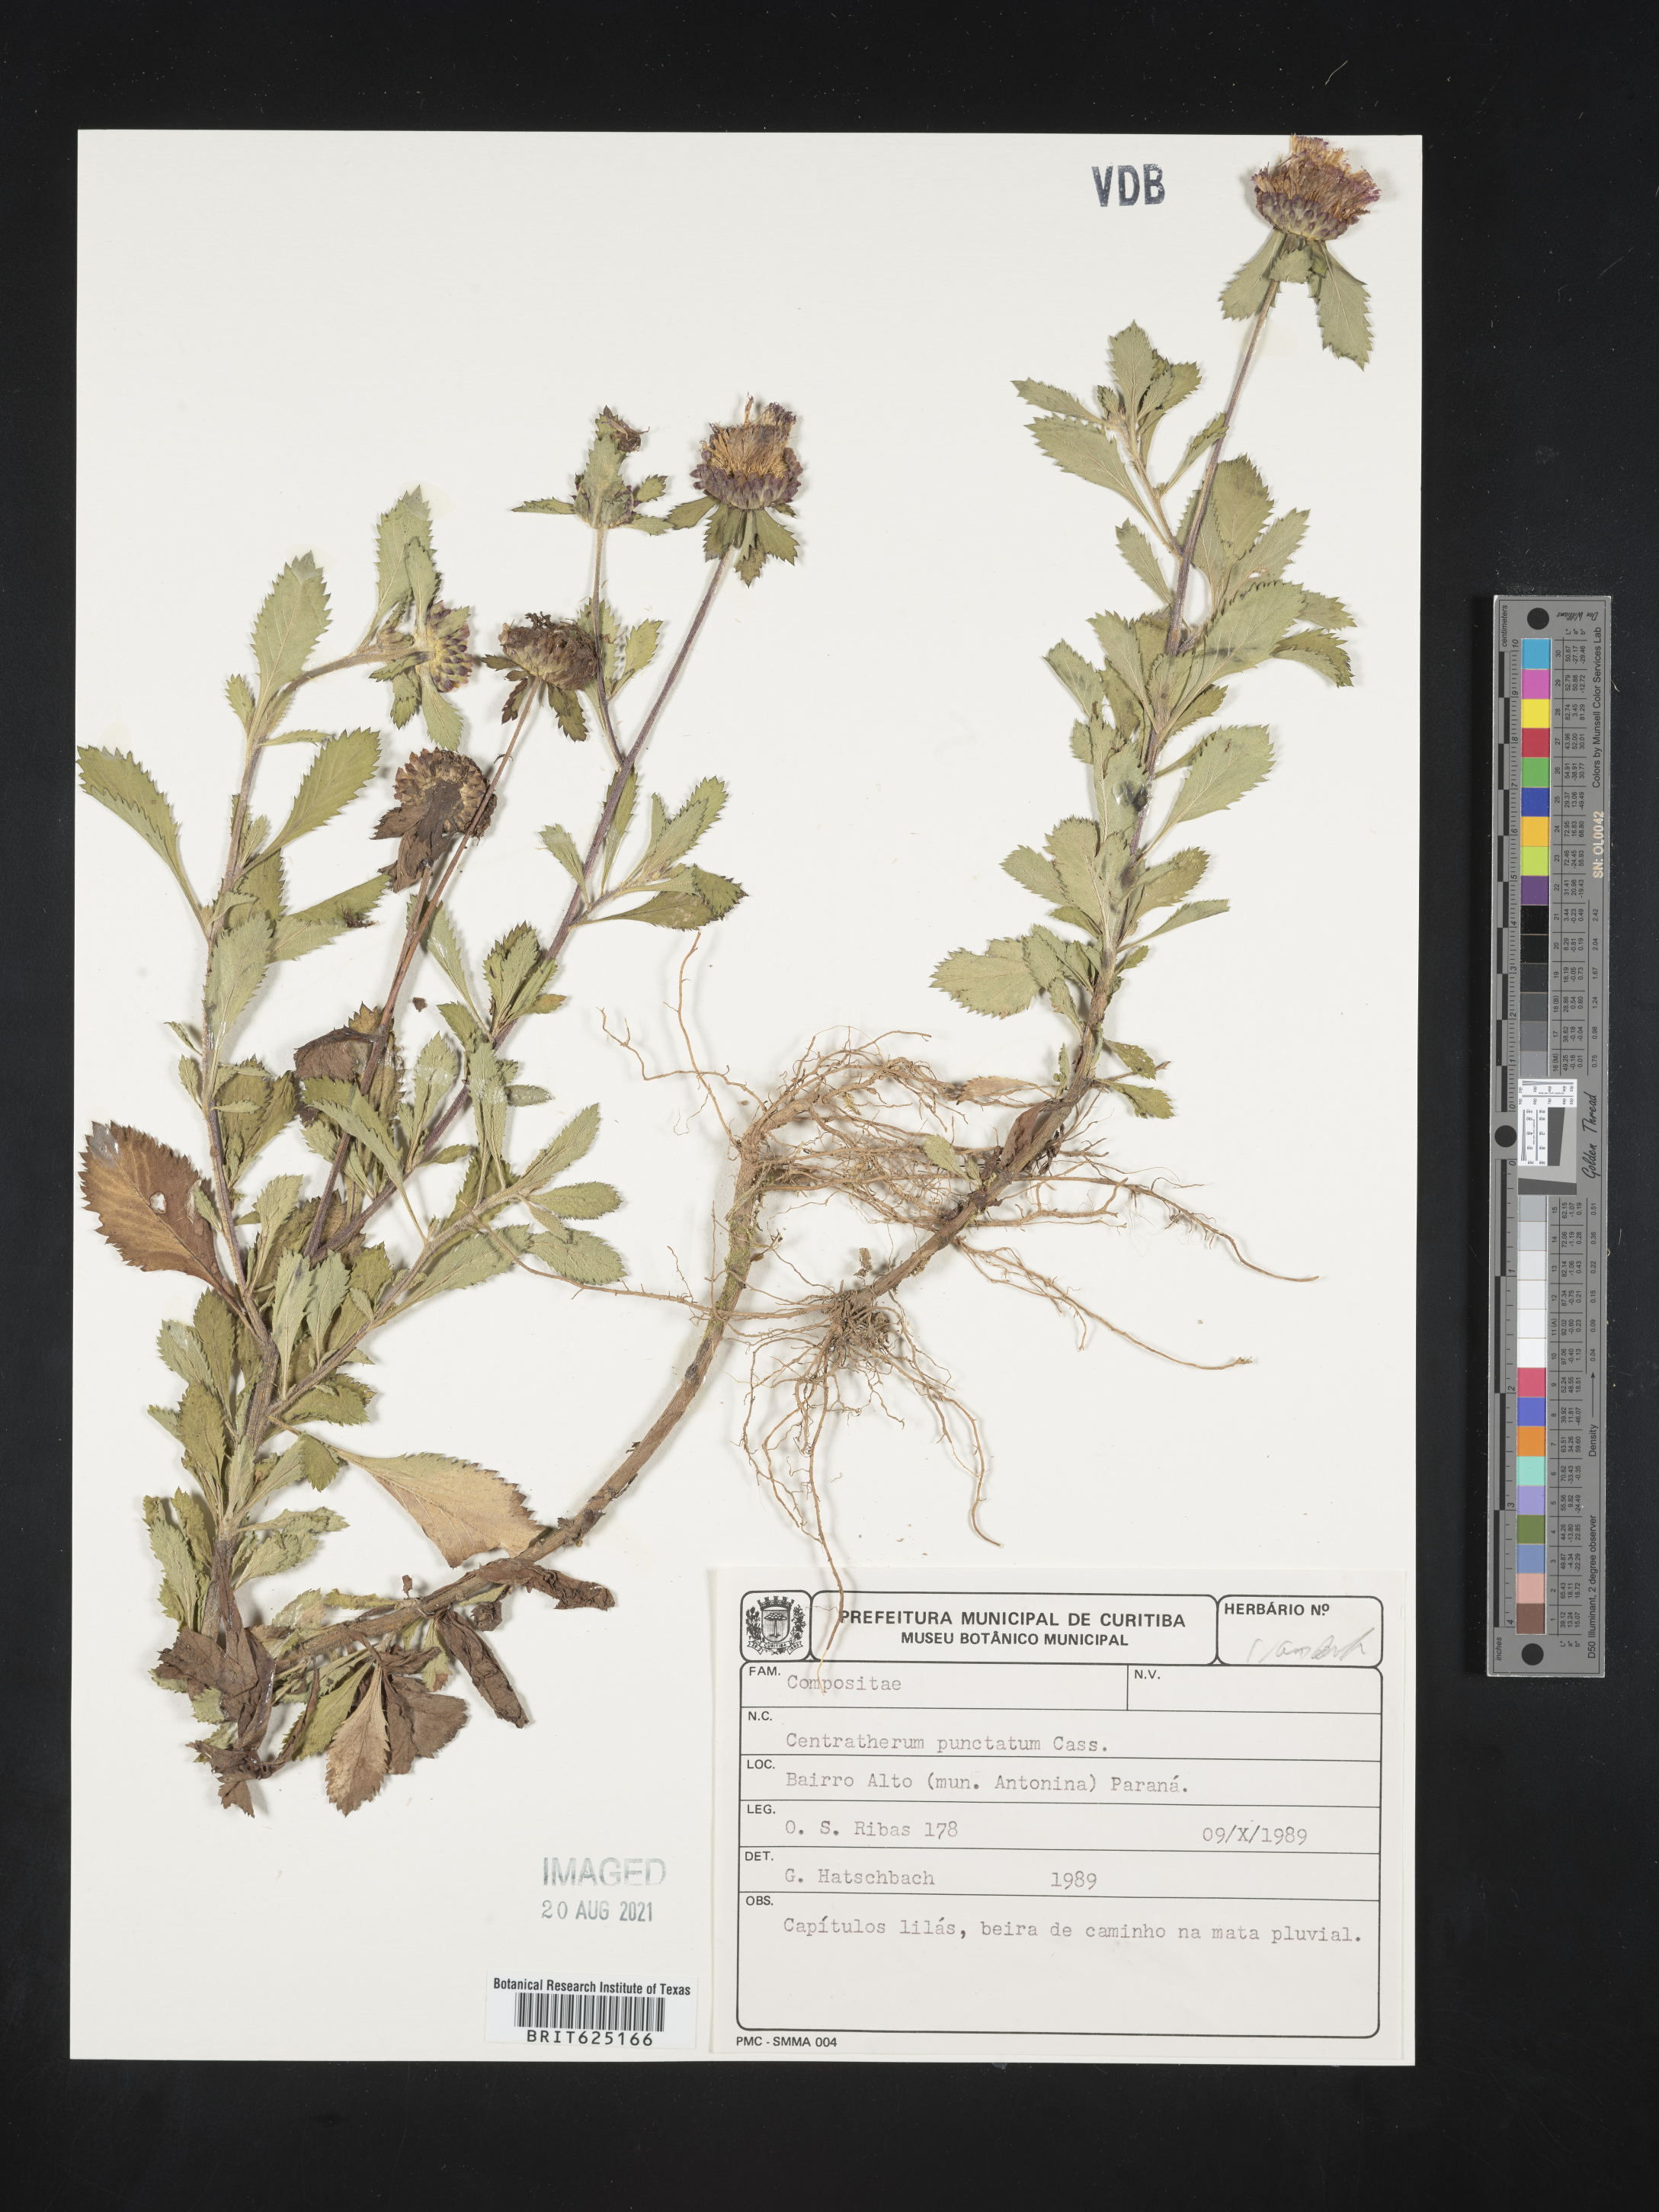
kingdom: Plantae
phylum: Tracheophyta
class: Magnoliopsida
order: Asterales
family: Asteraceae
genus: Centratherum
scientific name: Centratherum punctatum
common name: Larkdaisy
